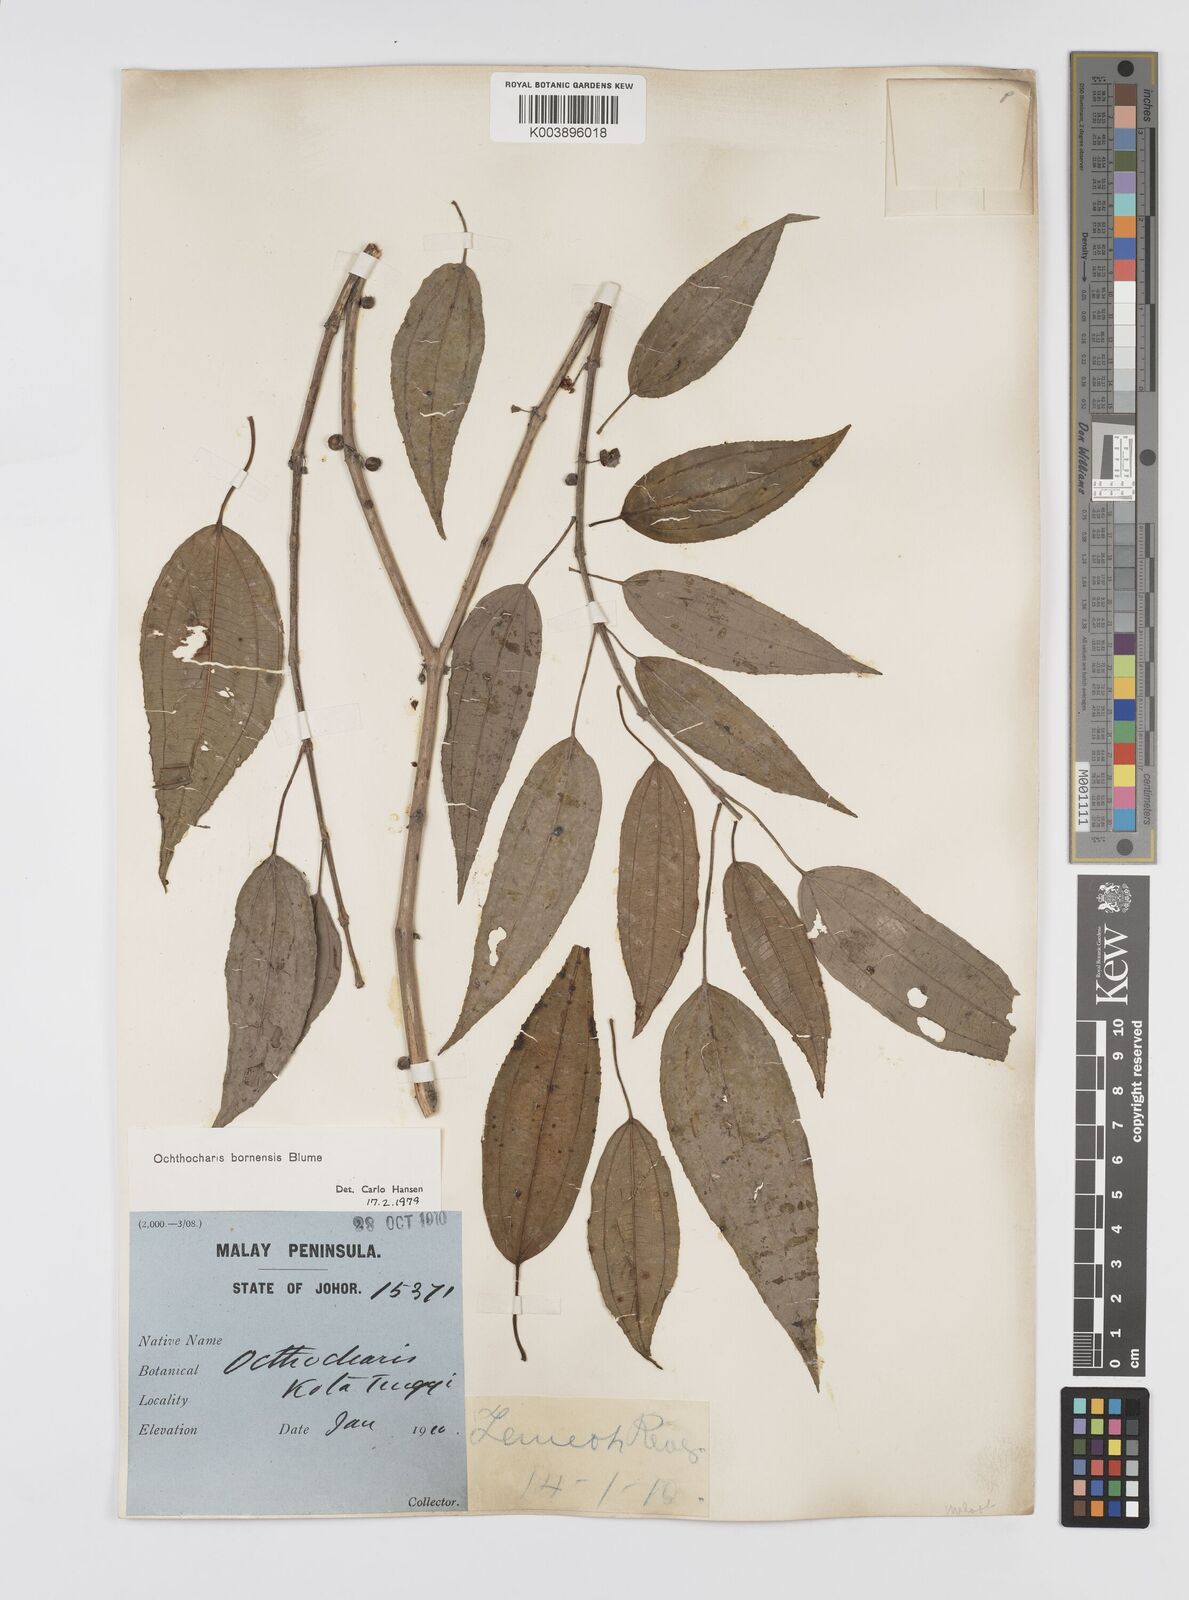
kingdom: Plantae
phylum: Tracheophyta
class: Magnoliopsida
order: Myrtales
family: Melastomataceae
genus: Ochthocharis
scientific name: Ochthocharis bornensis
